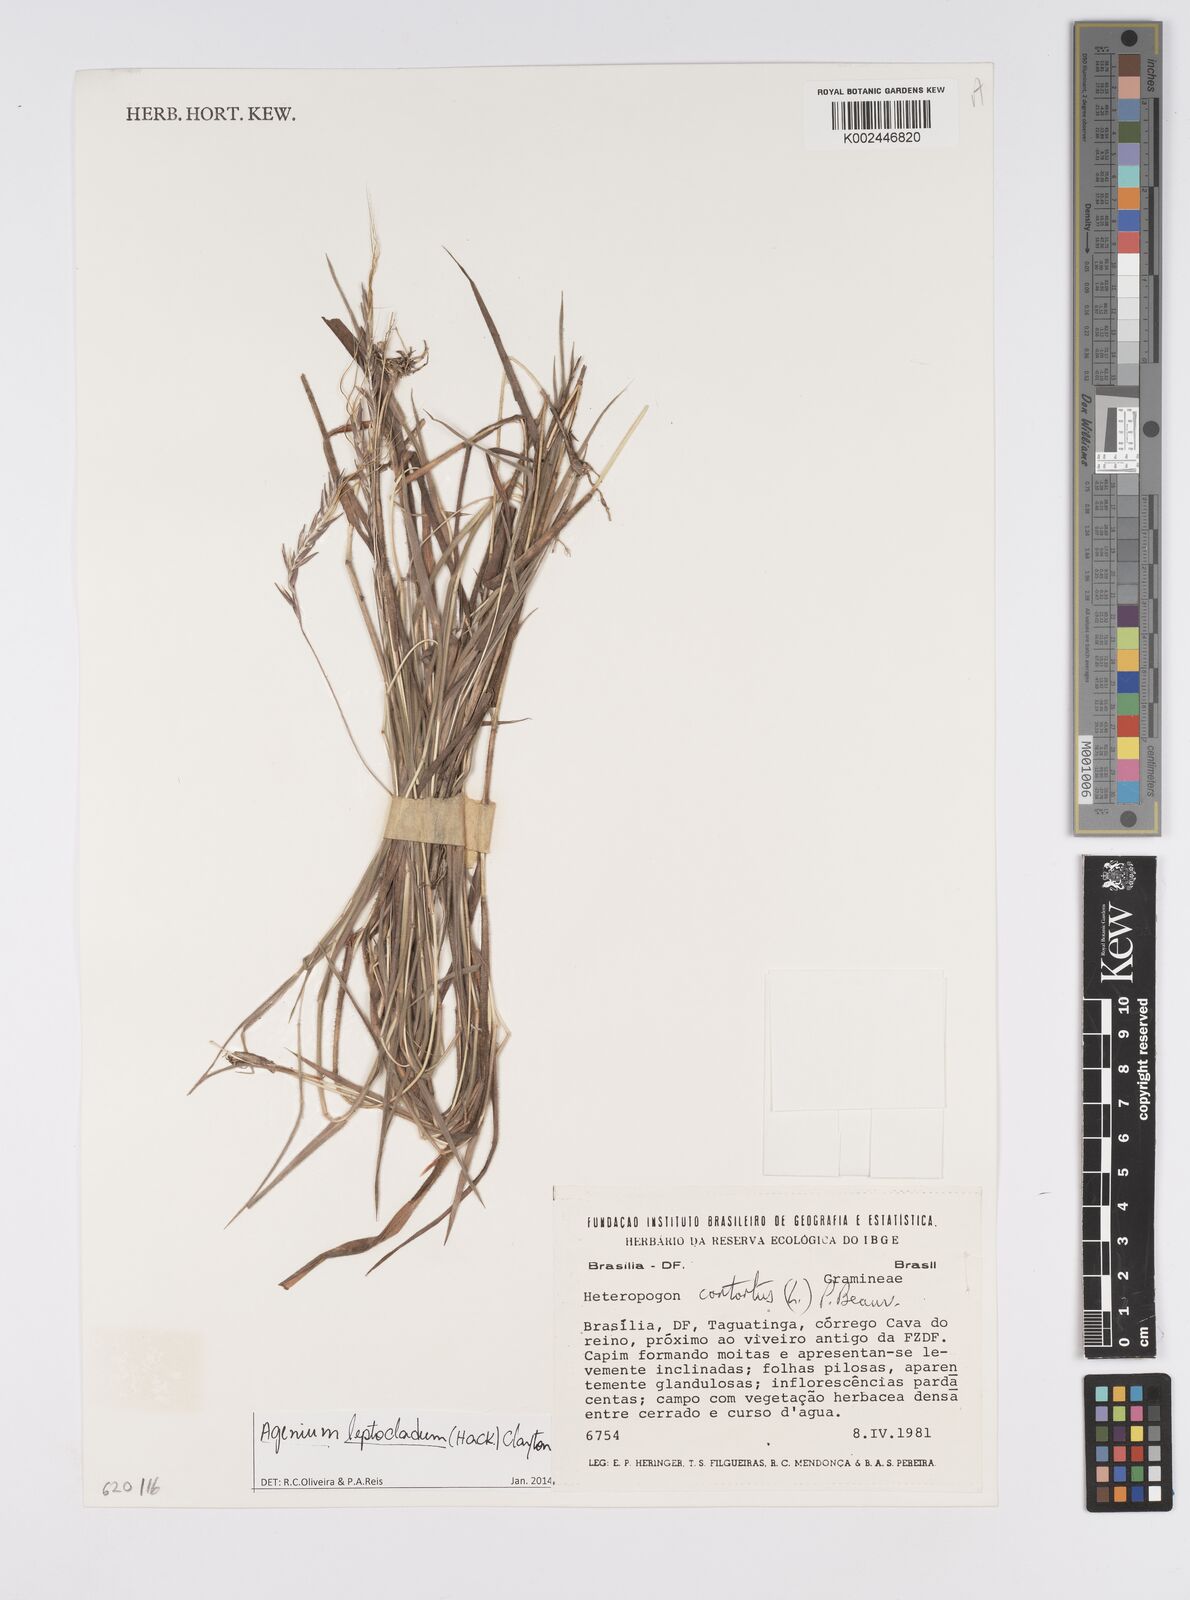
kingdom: Plantae
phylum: Tracheophyta
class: Liliopsida
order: Poales
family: Poaceae
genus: Agenium
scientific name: Agenium leptocladum
